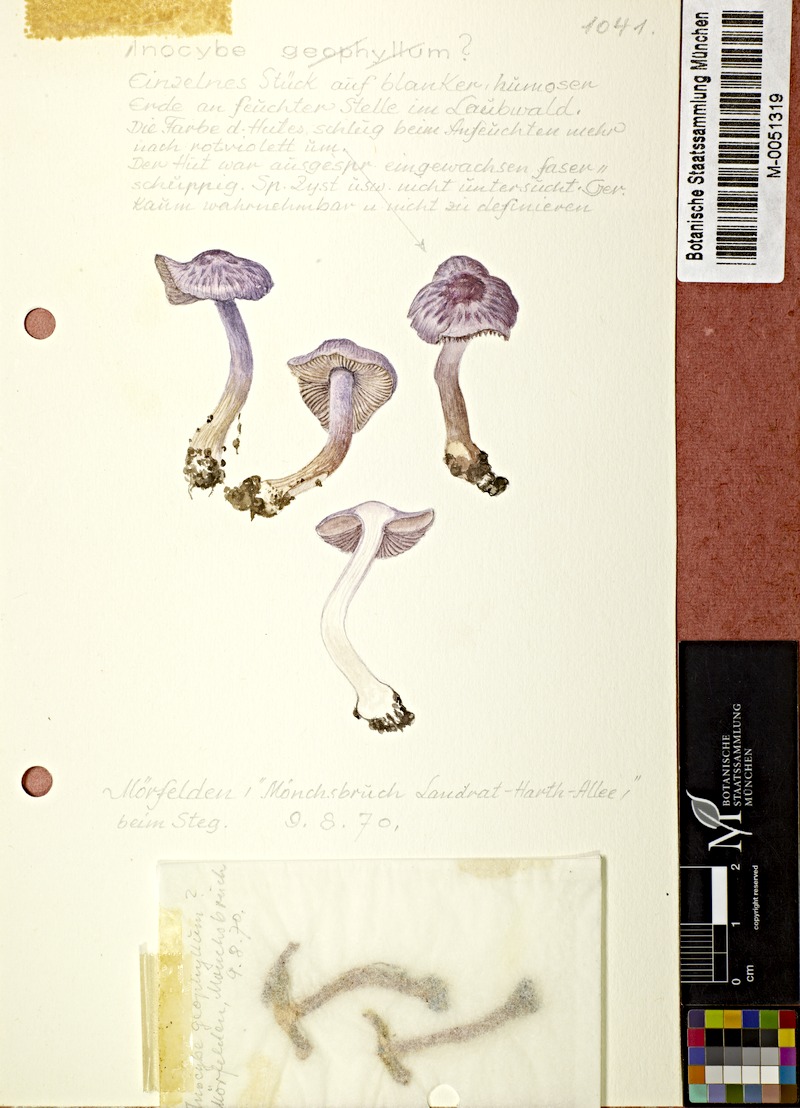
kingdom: Fungi
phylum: Basidiomycota
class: Agaricomycetes
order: Agaricales
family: Inocybaceae
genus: Inocybe
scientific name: Inocybe geophylla
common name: White fibrecap
